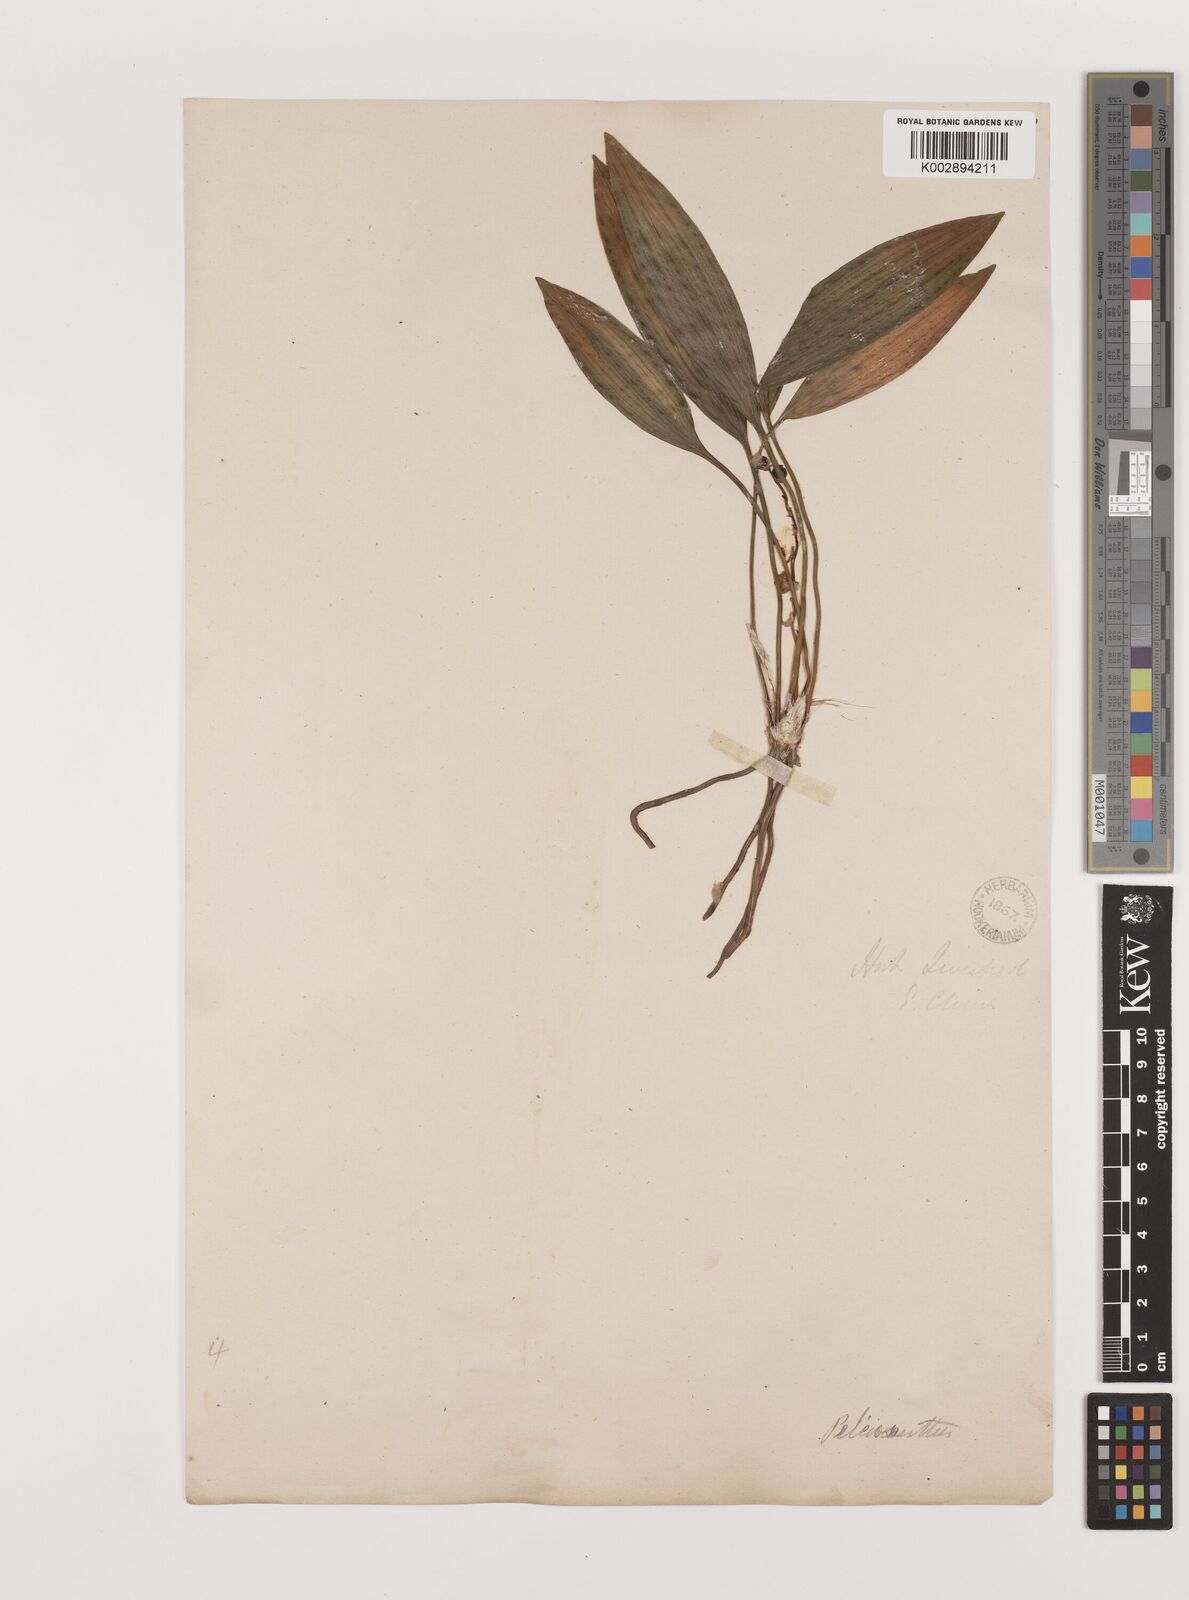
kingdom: Plantae
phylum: Tracheophyta
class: Liliopsida
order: Asparagales
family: Asparagaceae
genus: Peliosanthes
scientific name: Peliosanthes teta
